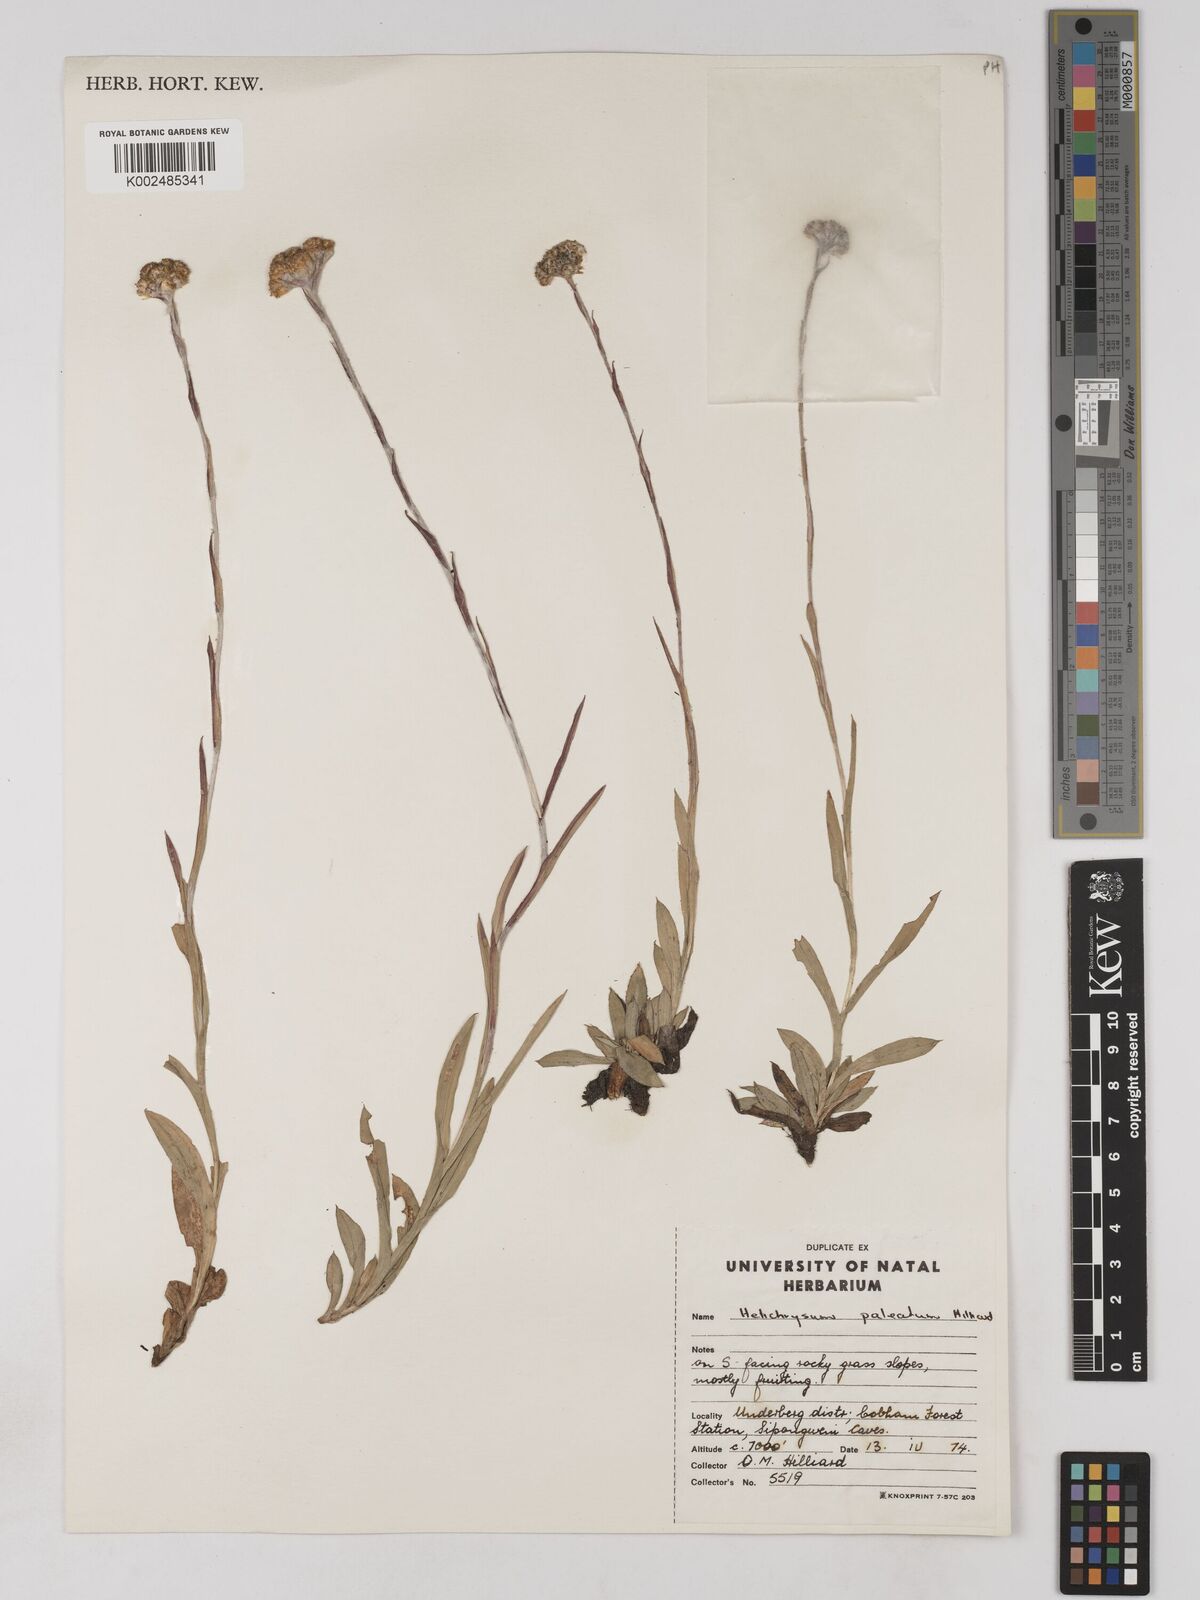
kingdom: Plantae
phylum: Tracheophyta
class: Magnoliopsida
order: Asterales
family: Asteraceae
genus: Helichrysum
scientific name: Helichrysum paleatum
